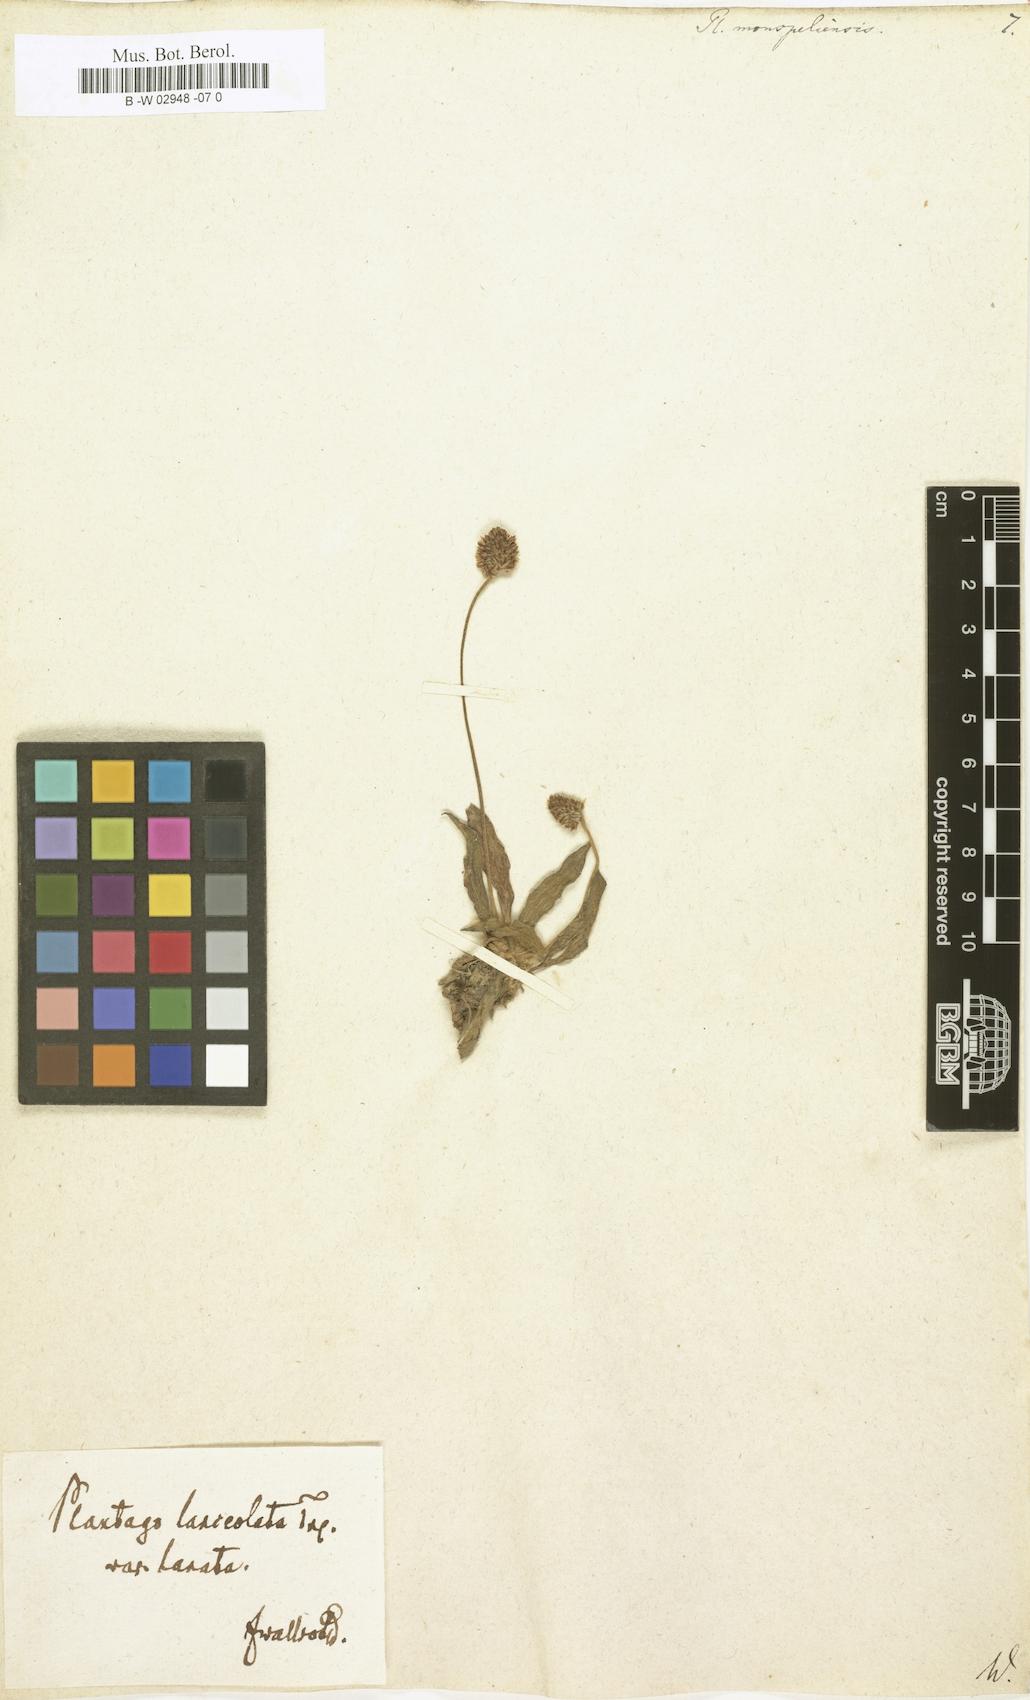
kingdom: Plantae
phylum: Tracheophyta
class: Magnoliopsida
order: Lamiales
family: Plantaginaceae
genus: Plantago
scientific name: Plantago ovata
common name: Blond plantain
